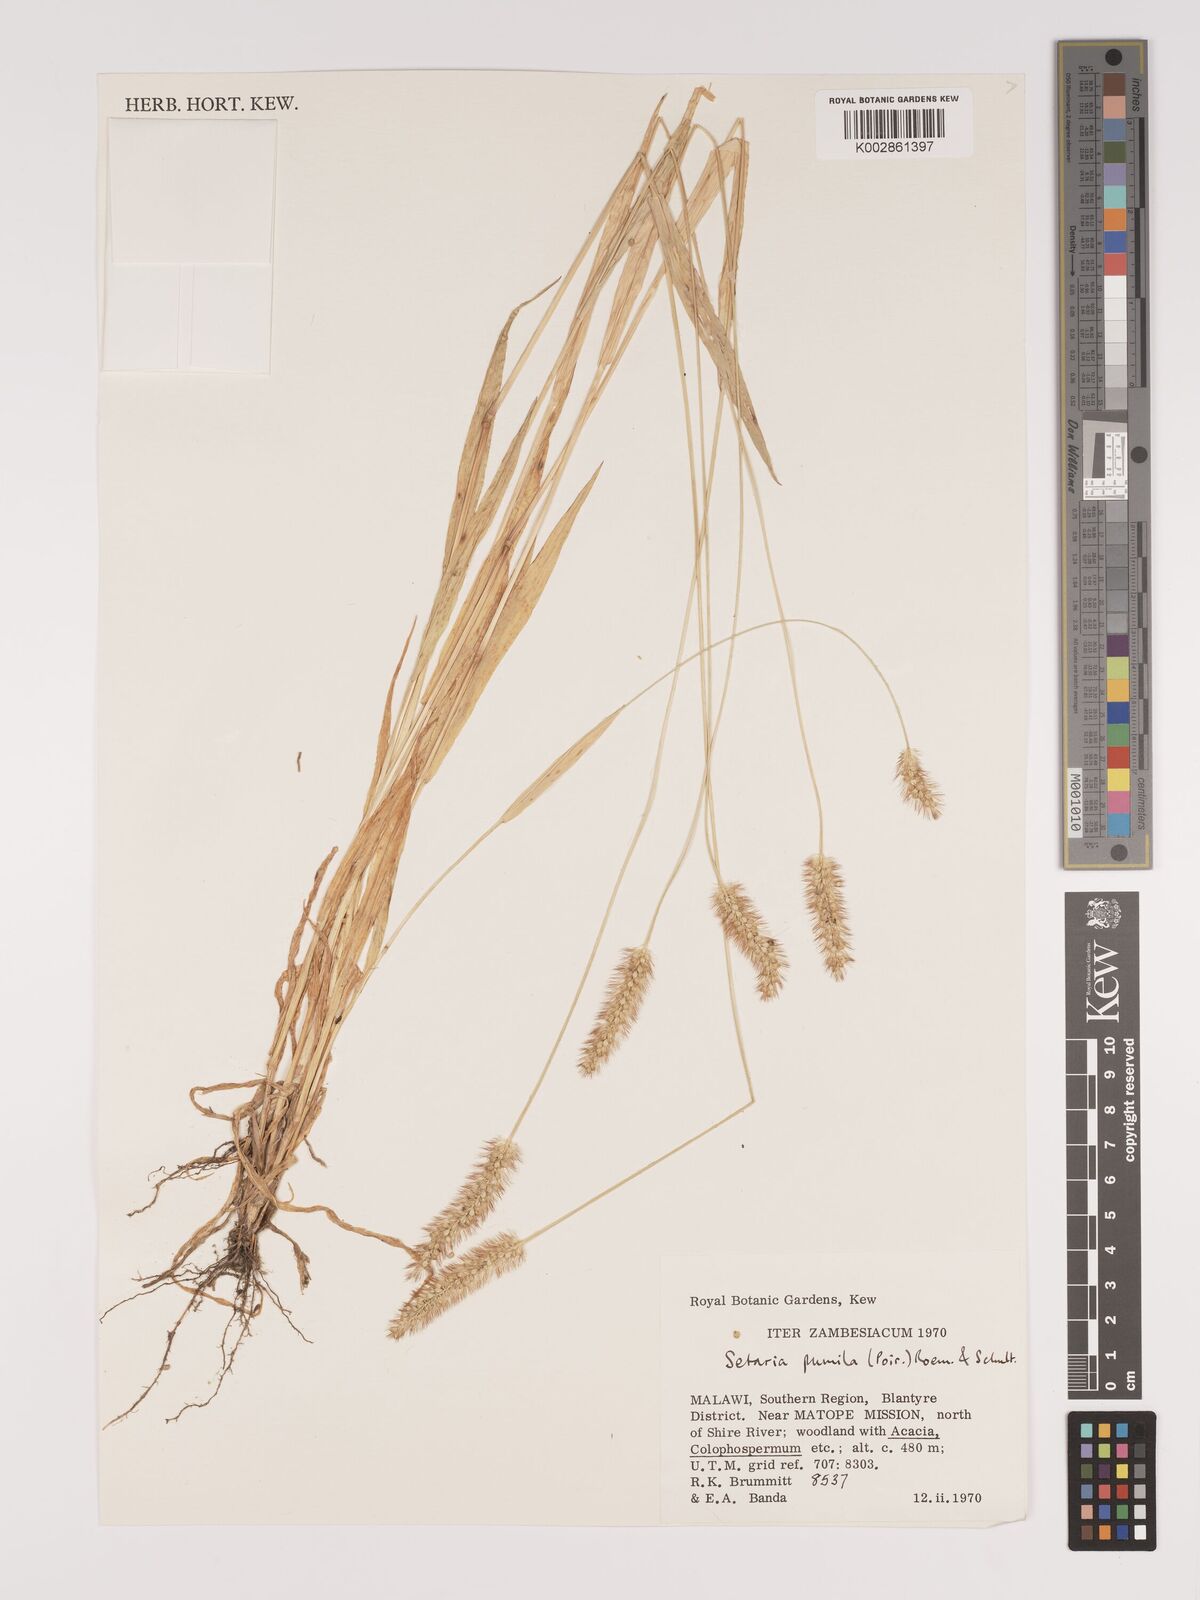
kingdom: Plantae
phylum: Tracheophyta
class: Liliopsida
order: Poales
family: Poaceae
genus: Setaria
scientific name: Setaria pumila
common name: Yellow bristle-grass
